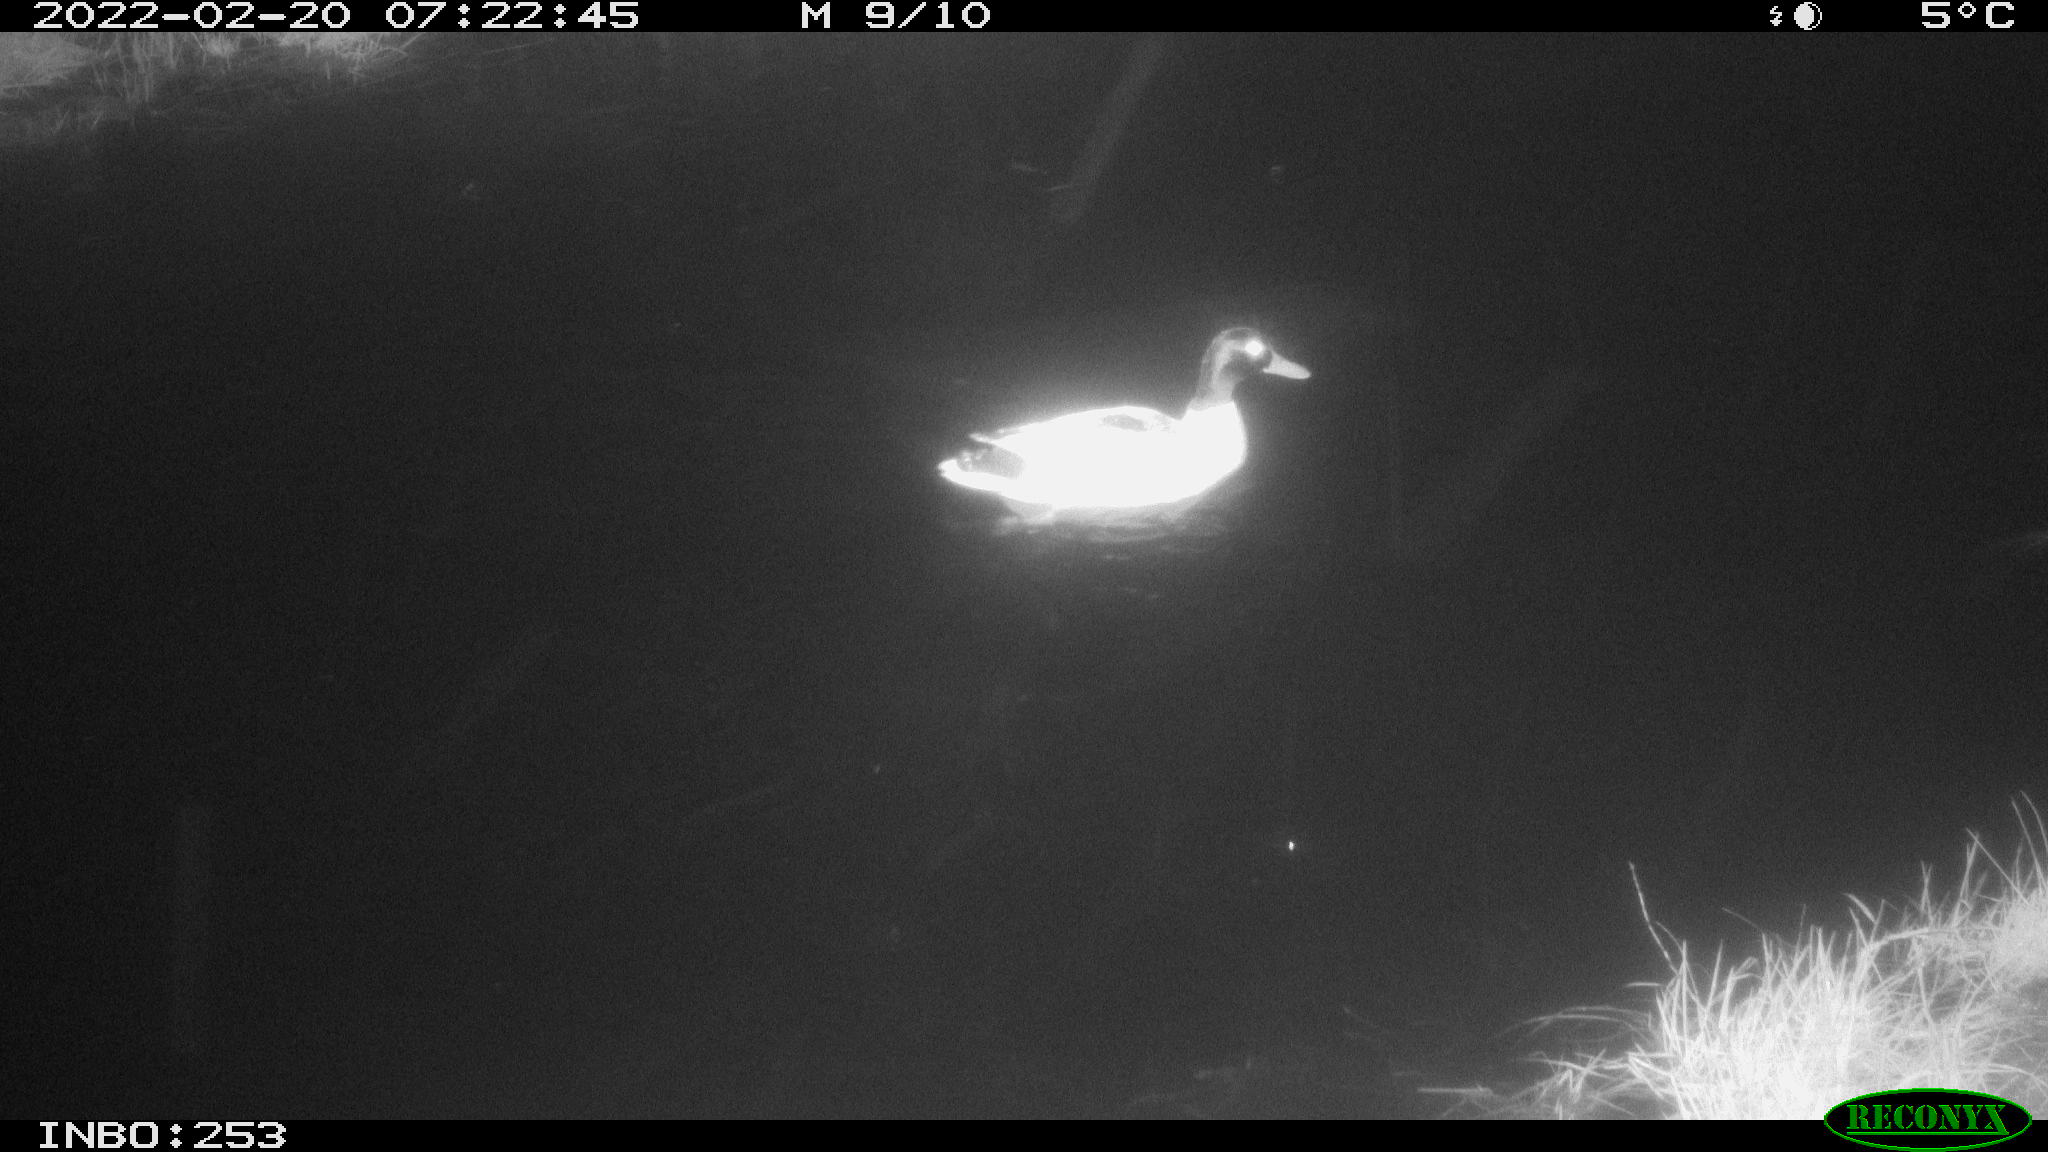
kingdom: Animalia
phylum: Chordata
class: Aves
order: Anseriformes
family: Anatidae
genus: Anas
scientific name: Anas platyrhynchos
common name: Mallard
